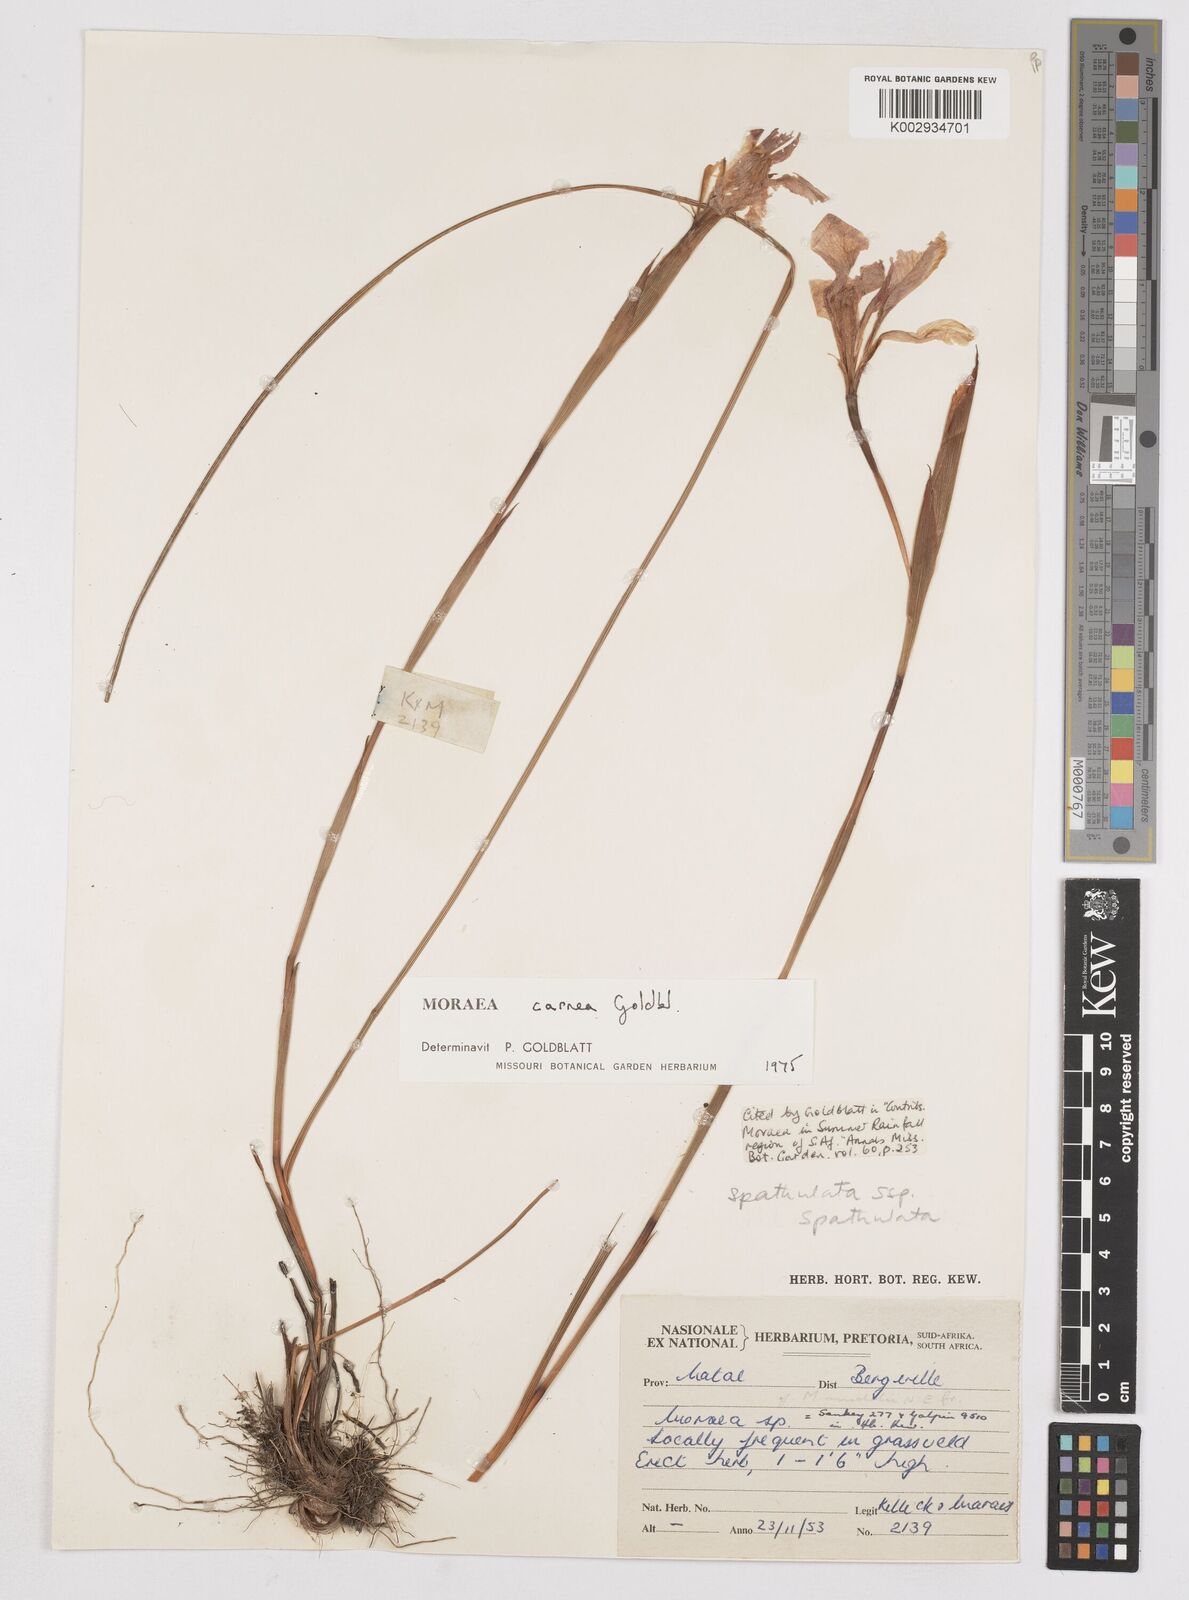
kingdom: Plantae
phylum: Tracheophyta
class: Liliopsida
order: Asparagales
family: Iridaceae
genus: Moraea
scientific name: Moraea carnea
